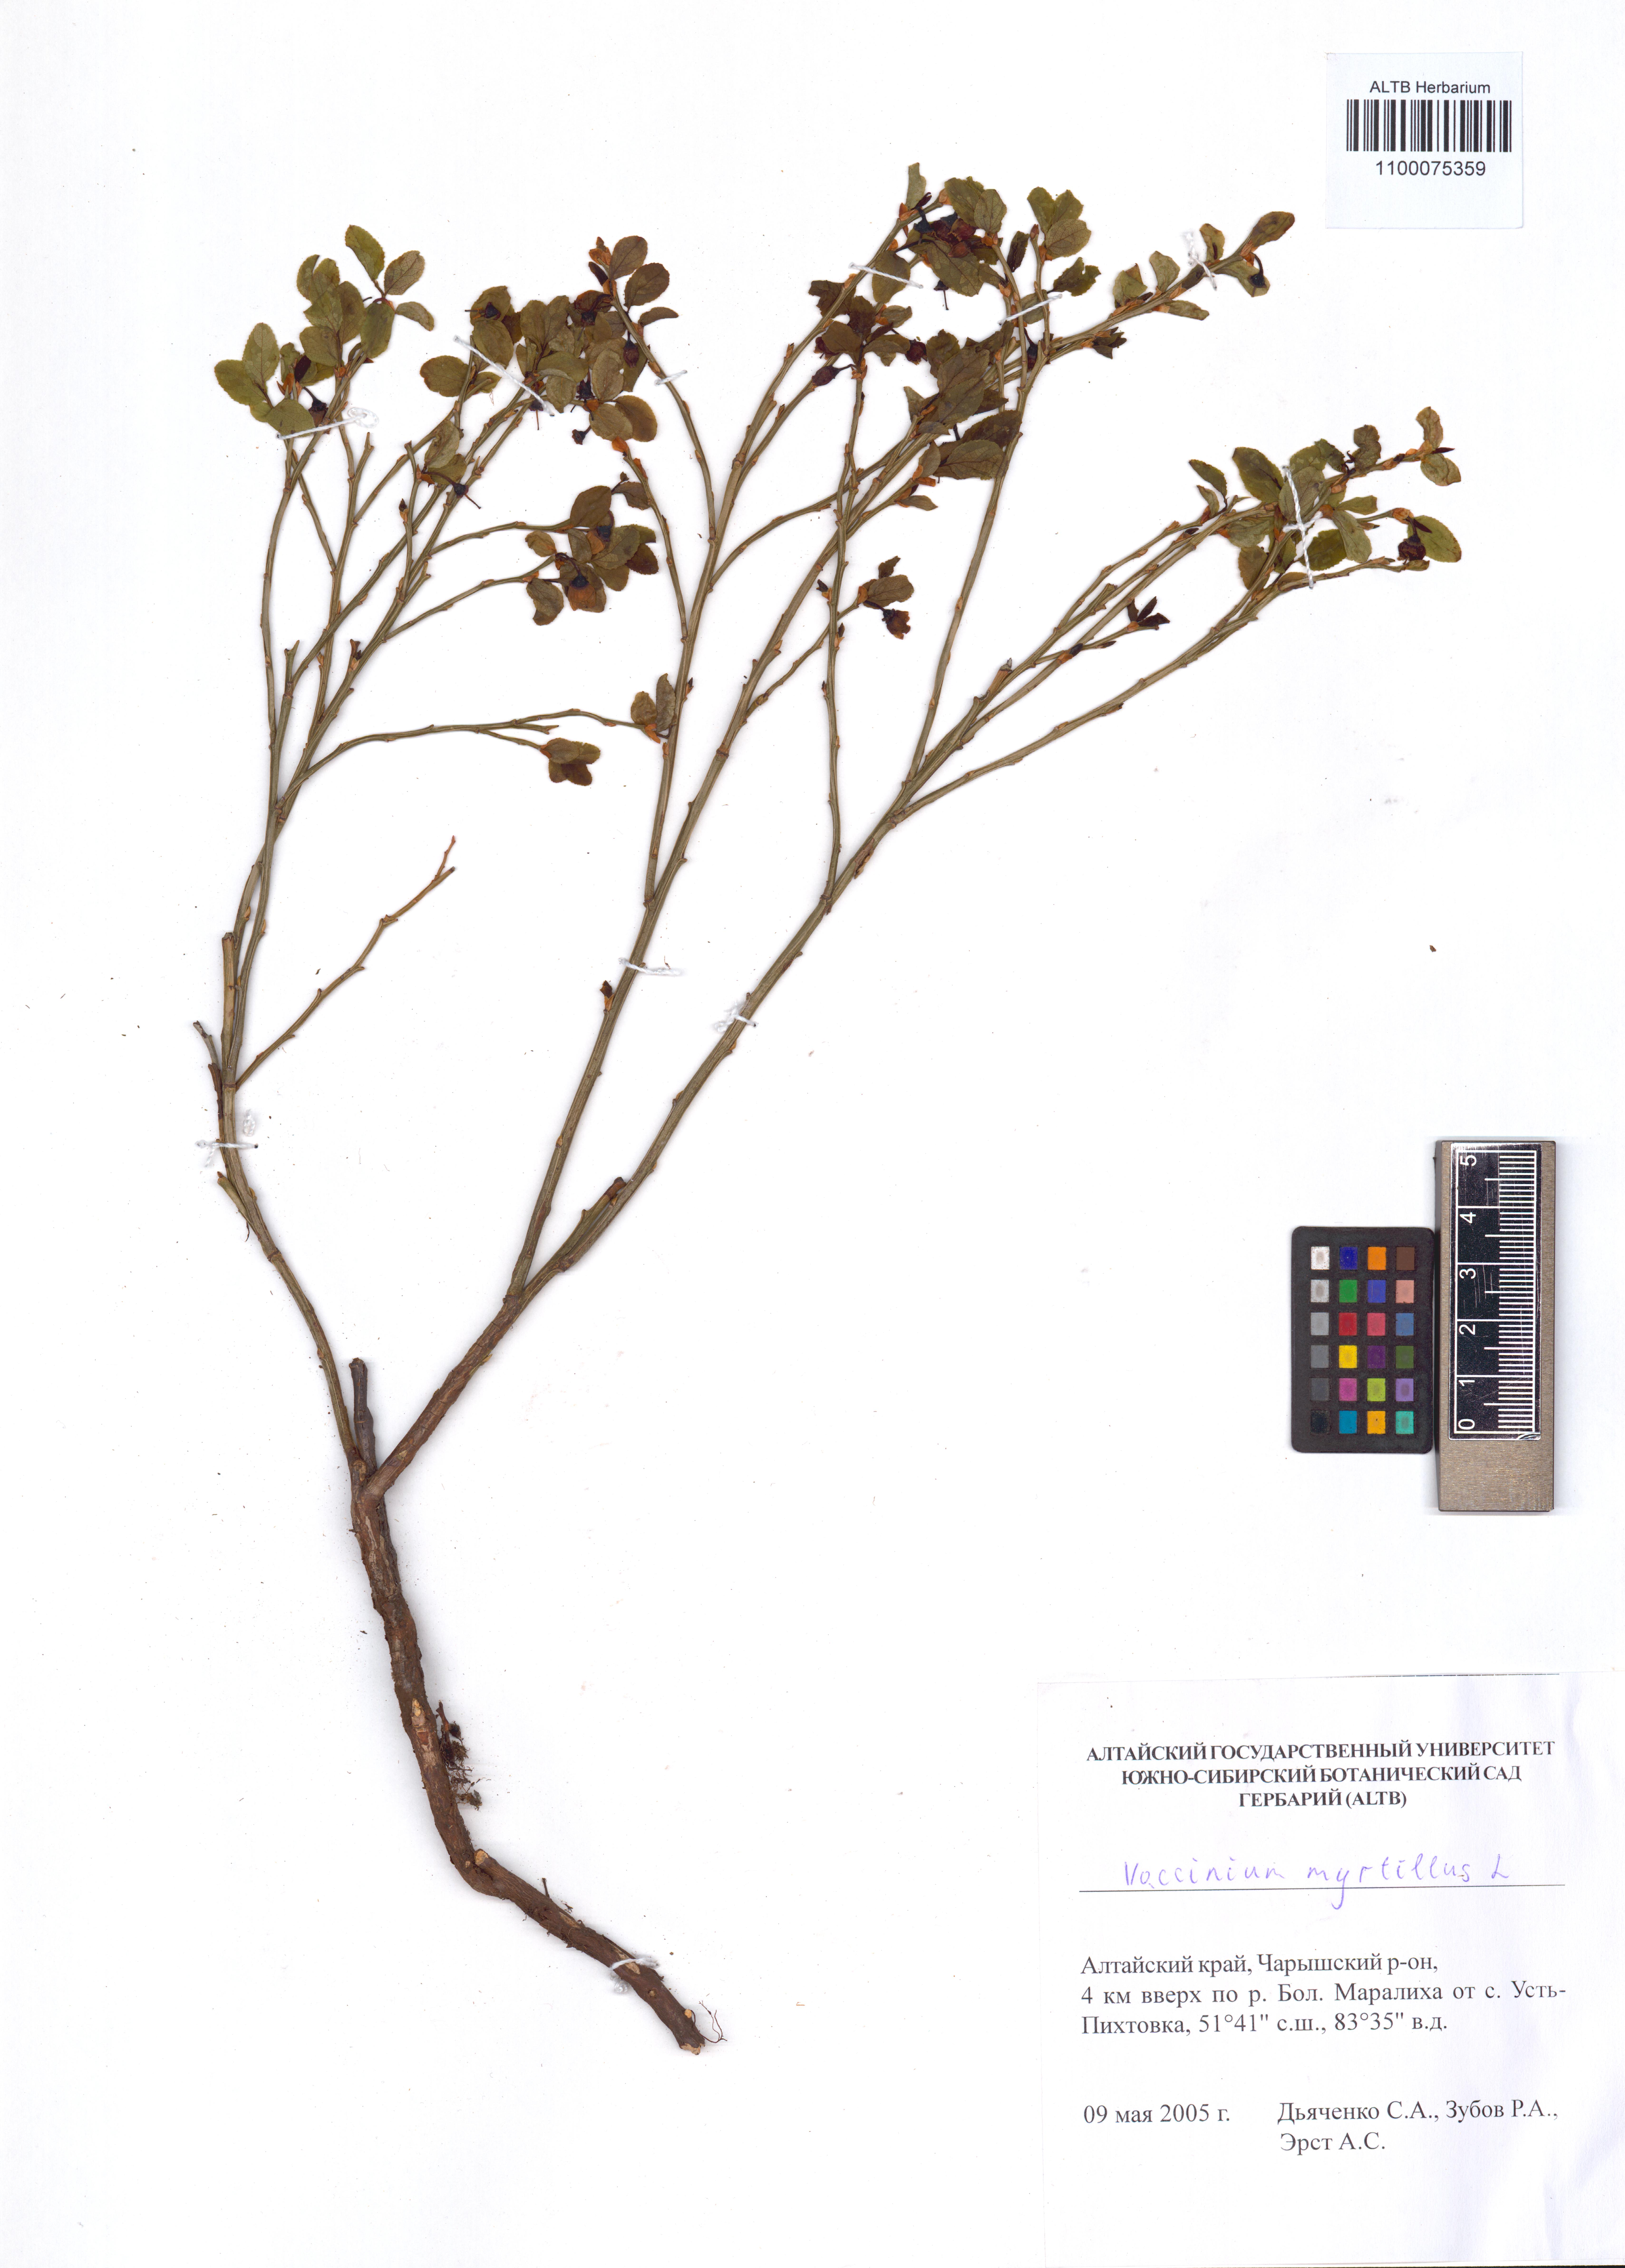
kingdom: Plantae
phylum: Tracheophyta
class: Magnoliopsida
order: Ericales
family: Ericaceae
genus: Vaccinium
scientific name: Vaccinium myrtillus
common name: Bilberry
